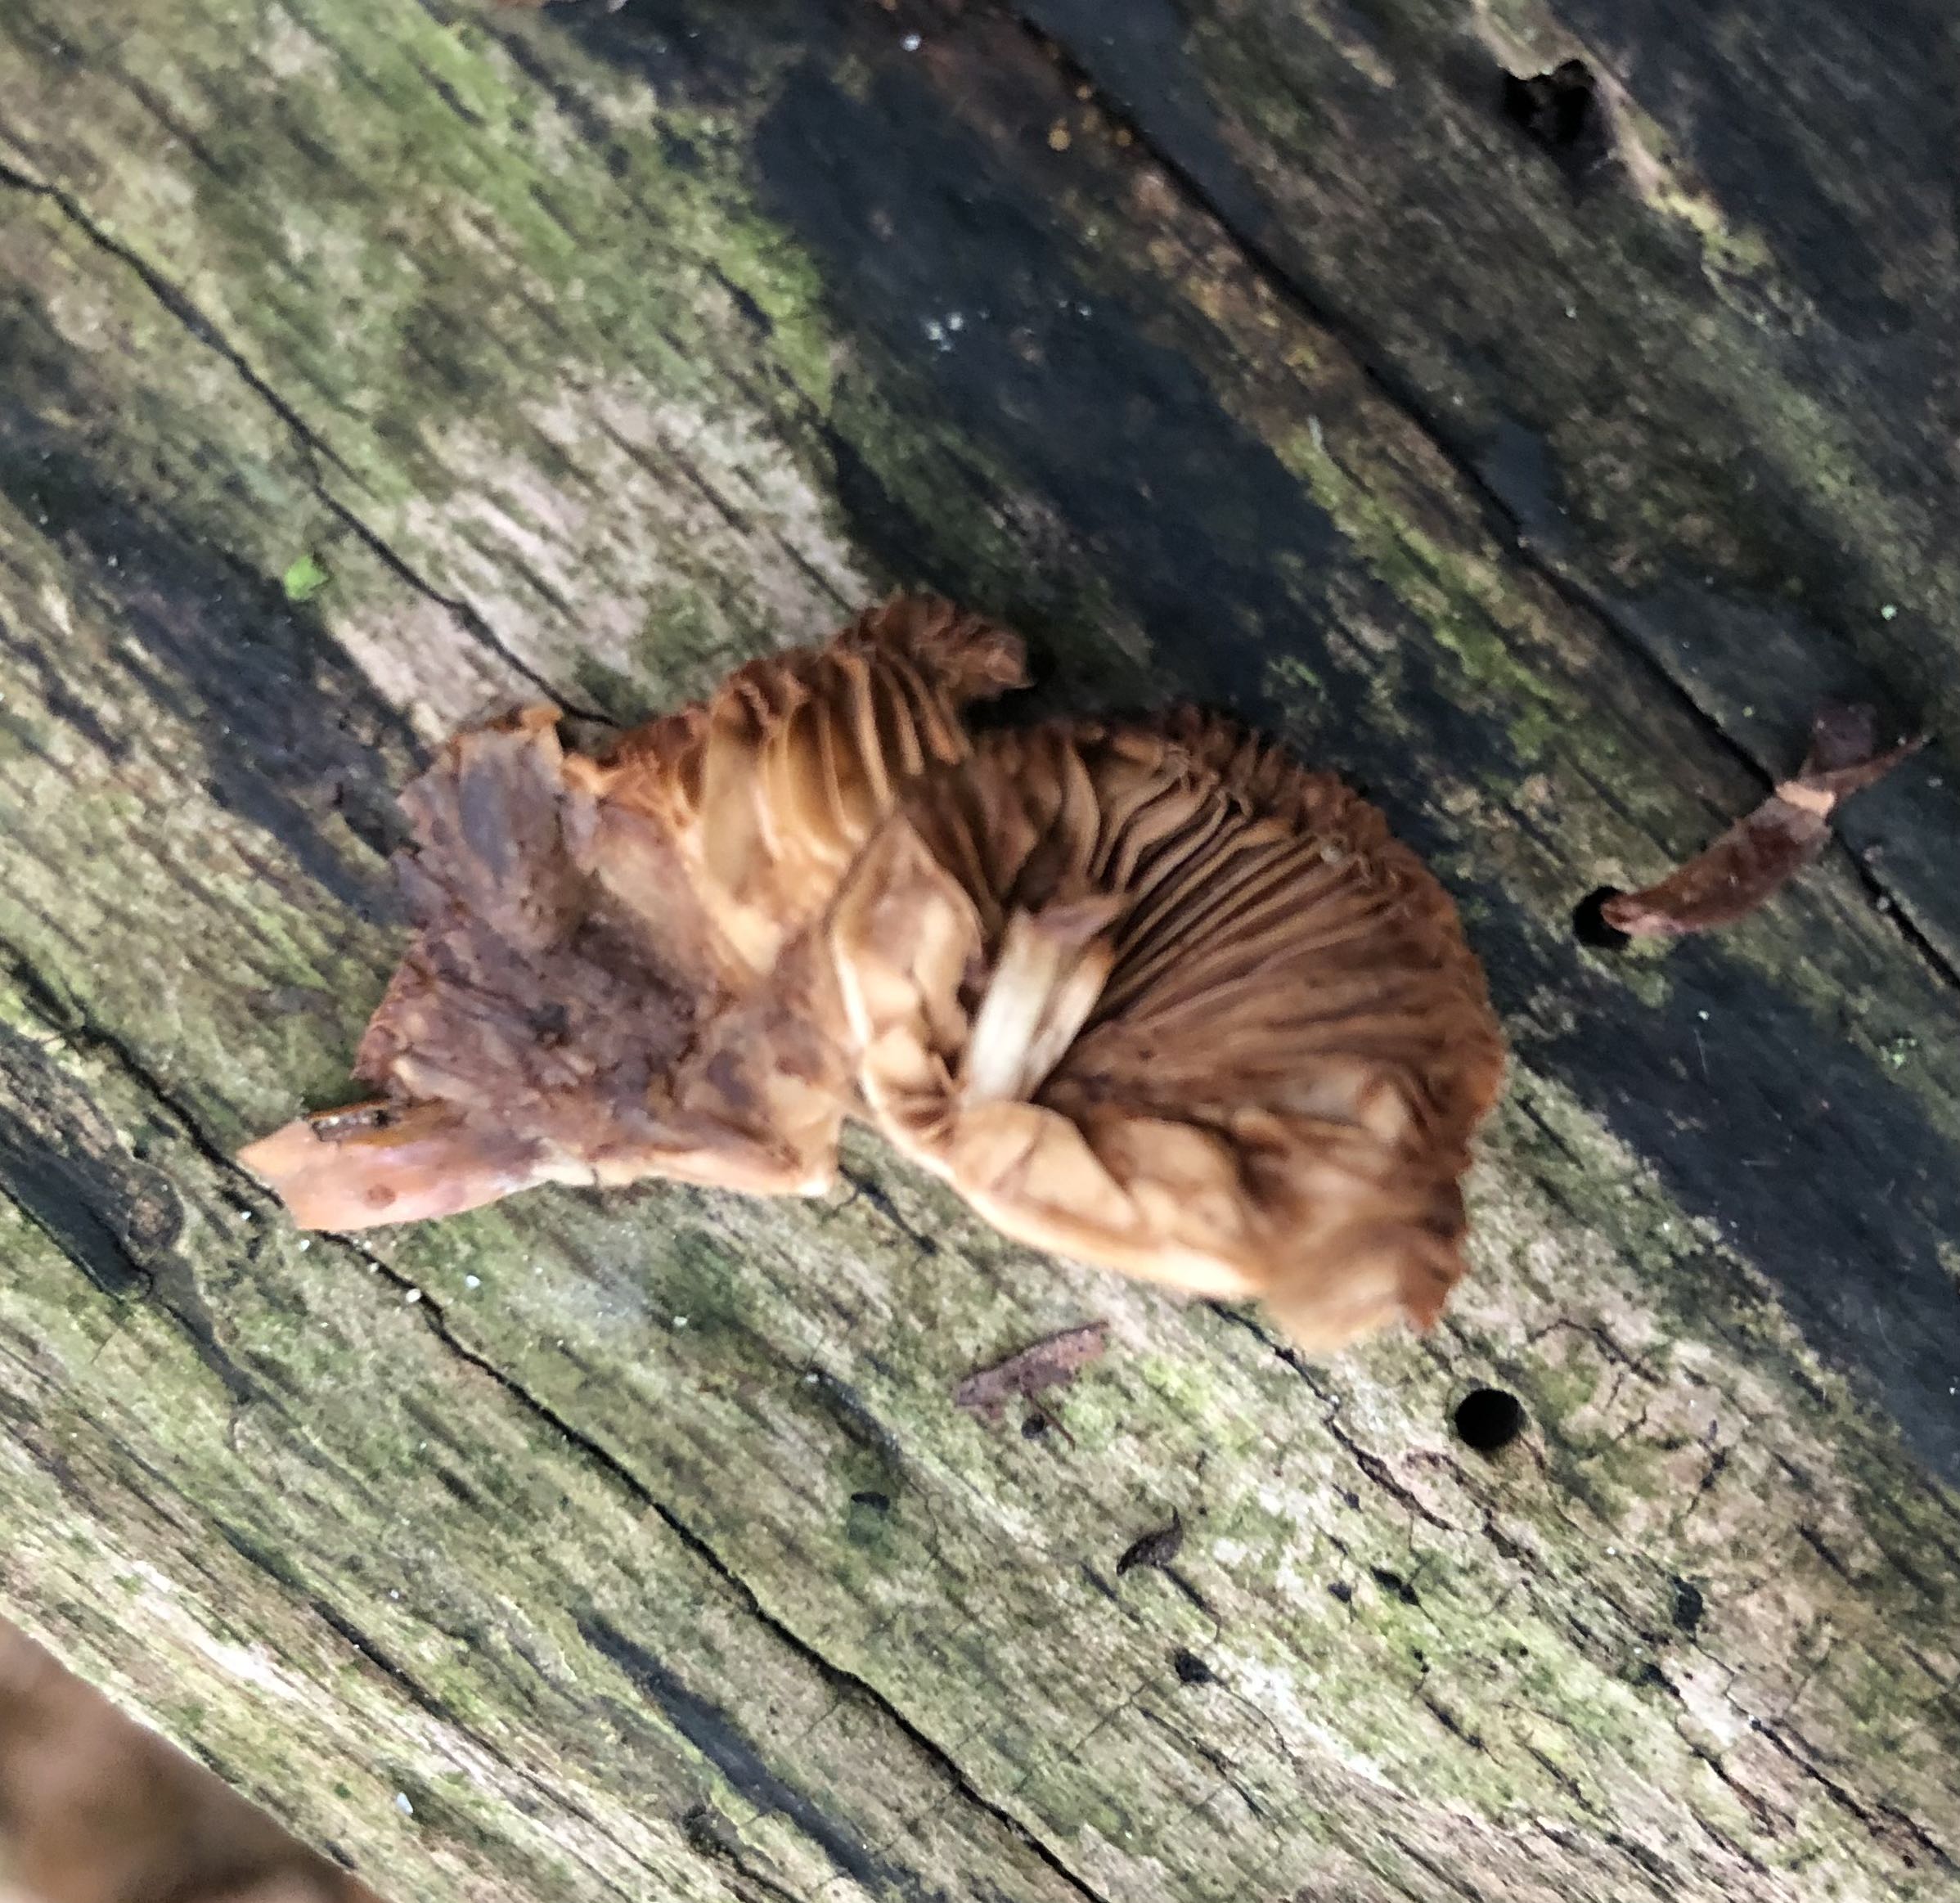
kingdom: Fungi
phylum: Basidiomycota
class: Agaricomycetes
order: Agaricales
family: Bolbitiaceae
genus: Conocybe
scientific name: Conocybe
